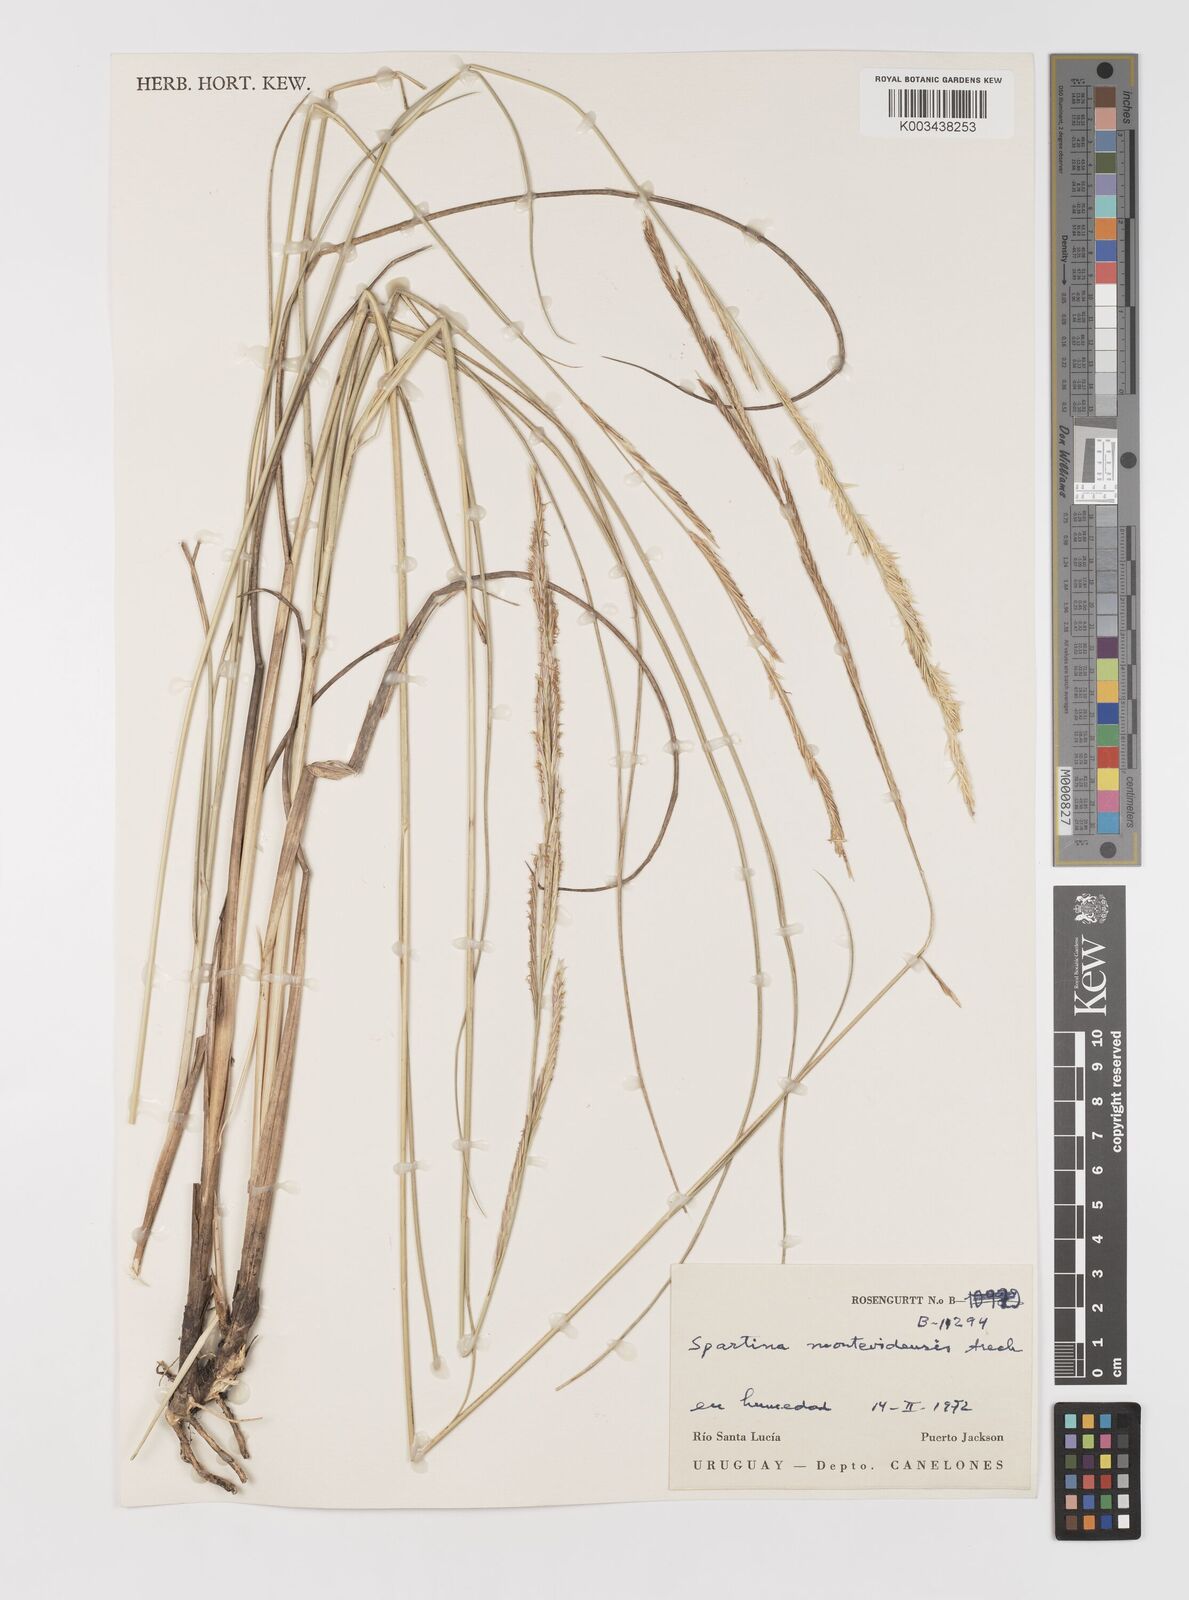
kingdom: Plantae
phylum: Tracheophyta
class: Liliopsida
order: Poales
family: Poaceae
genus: Sporobolus
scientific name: Sporobolus montevidensis
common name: Montevideo dropseed
